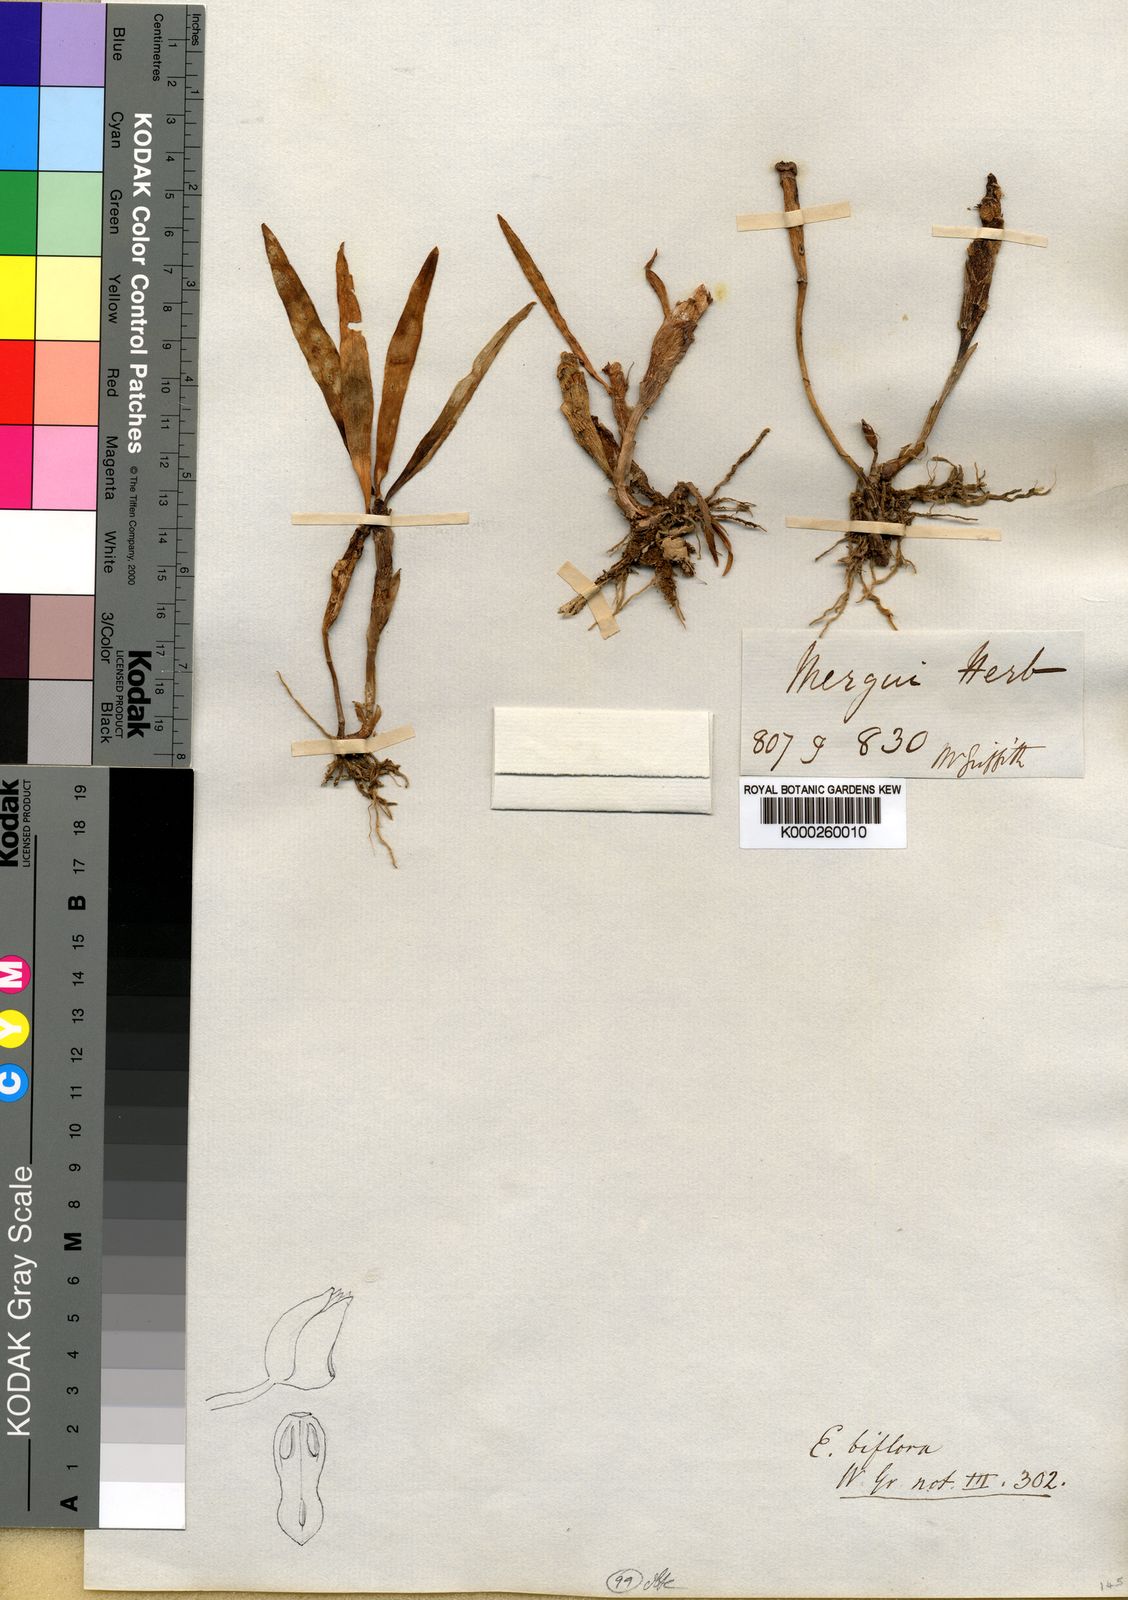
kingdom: Plantae
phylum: Tracheophyta
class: Liliopsida
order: Asparagales
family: Orchidaceae
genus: Cylindrolobus
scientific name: Cylindrolobus biflorus
